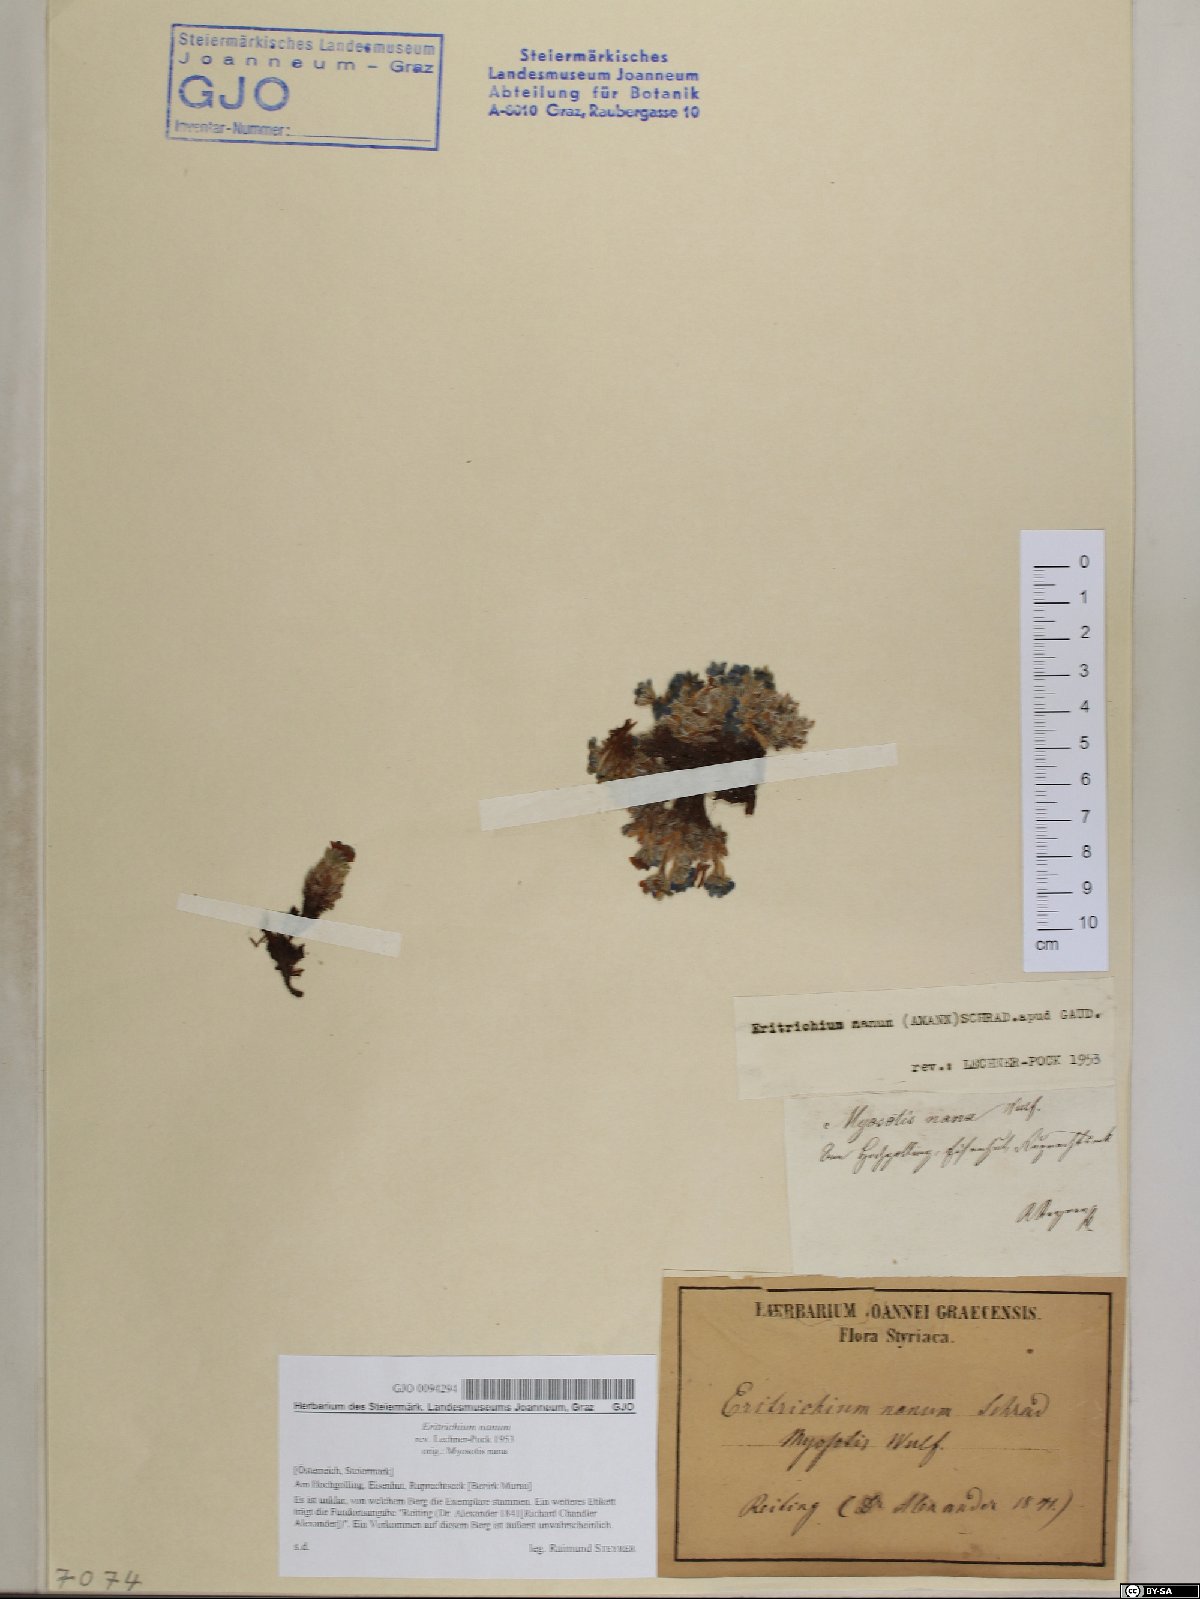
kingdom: Plantae
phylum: Tracheophyta
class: Magnoliopsida
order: Boraginales
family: Boraginaceae
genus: Eritrichium
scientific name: Eritrichium nanum
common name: King-of-the-alps
